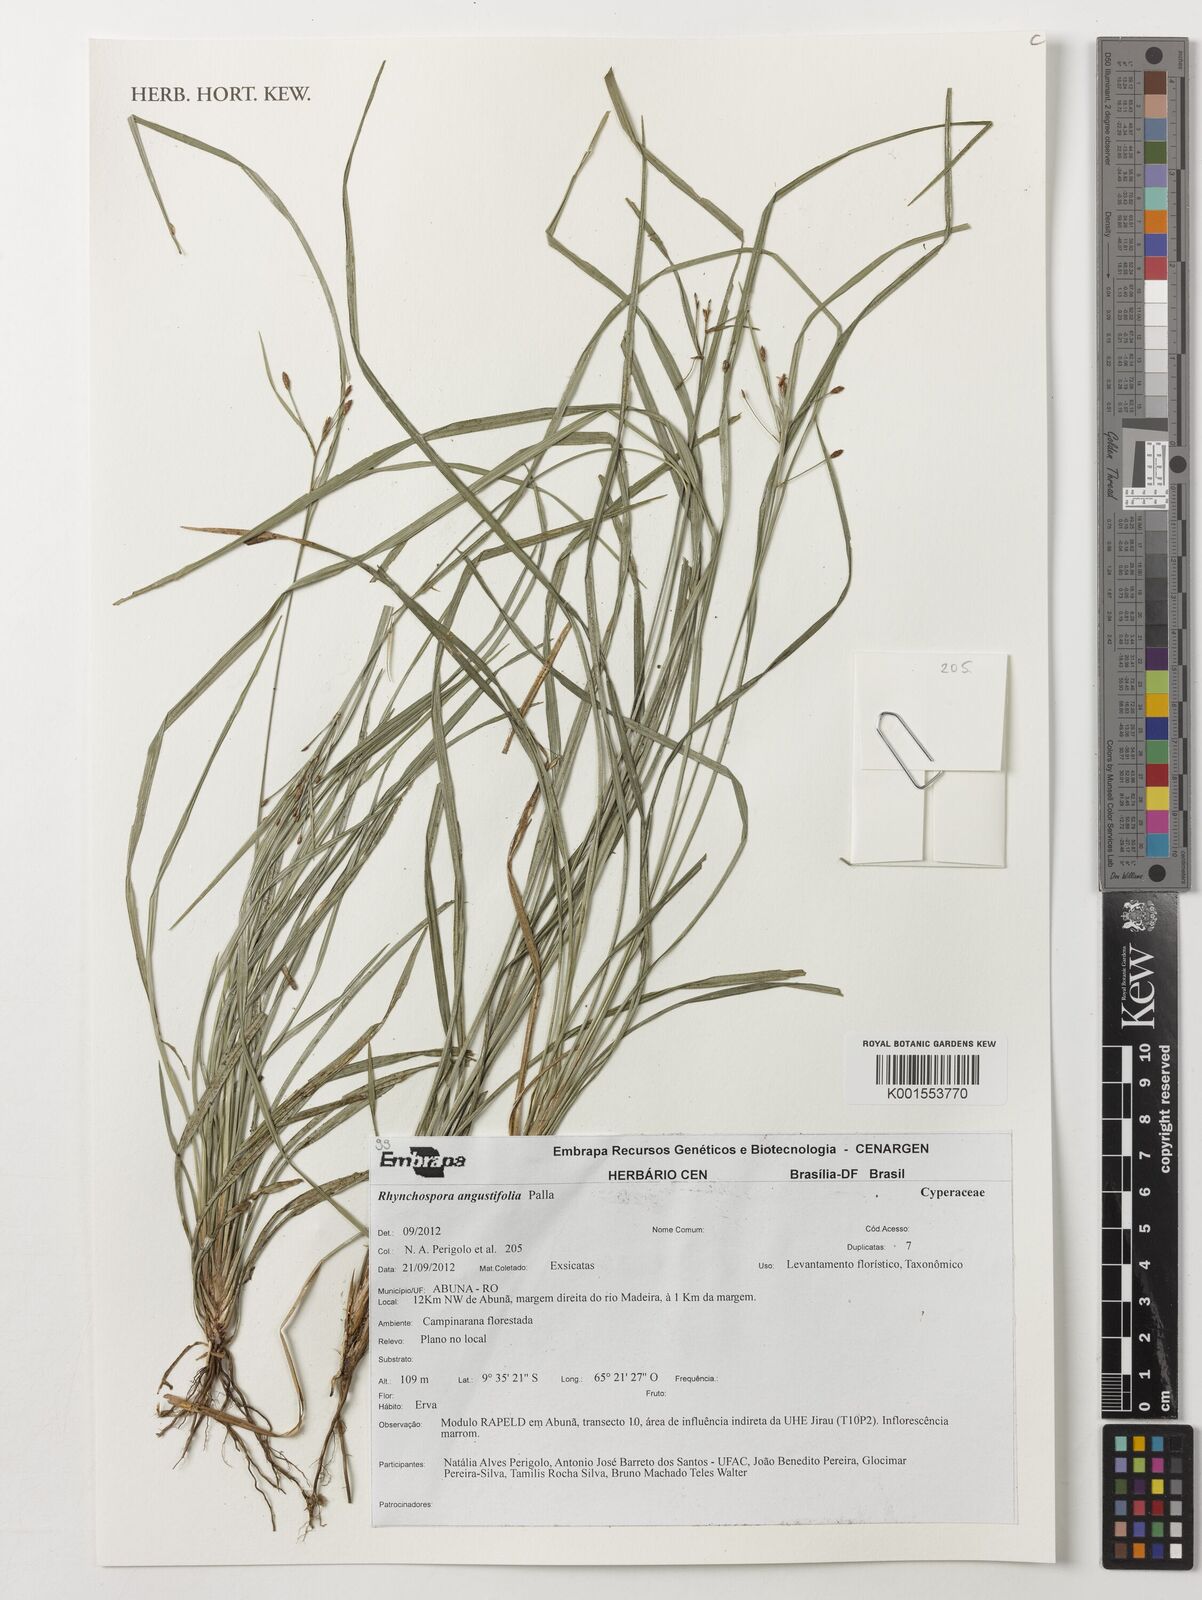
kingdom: Plantae
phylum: Tracheophyta
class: Liliopsida
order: Poales
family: Cyperaceae
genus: Rhynchospora
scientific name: Rhynchospora angustifolia
